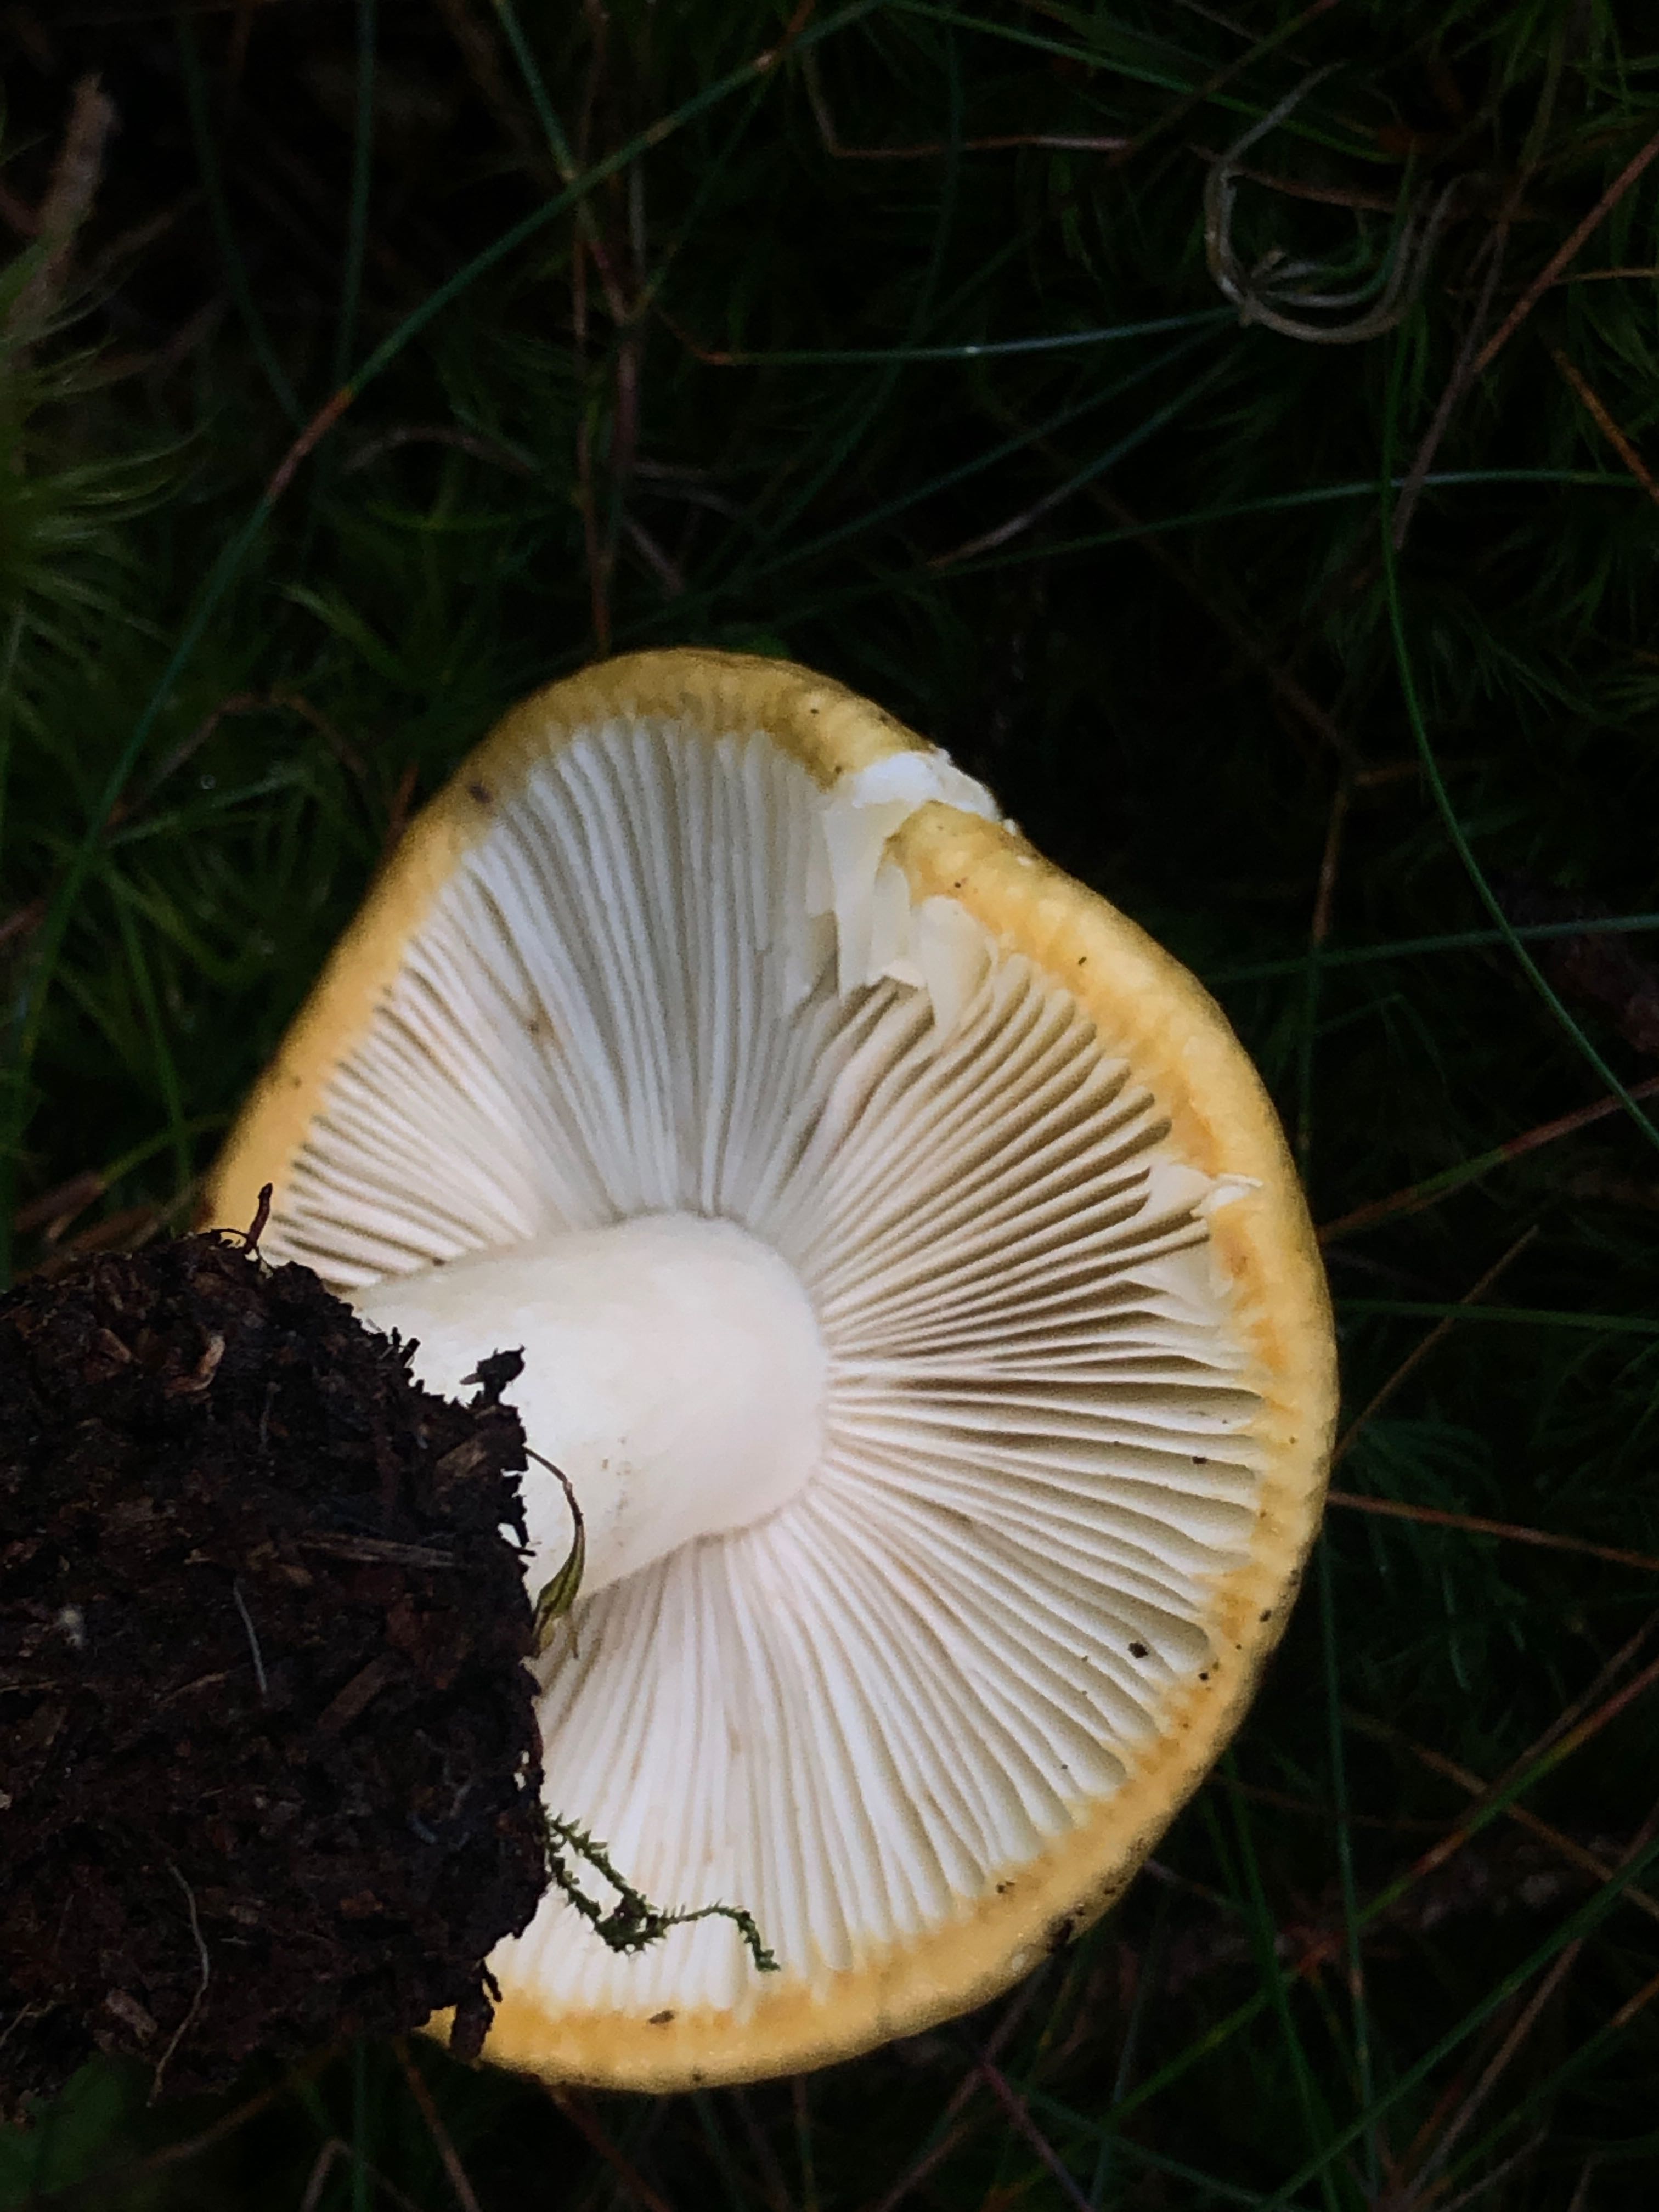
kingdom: Fungi
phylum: Basidiomycota
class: Agaricomycetes
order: Russulales
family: Russulaceae
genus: Russula
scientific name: Russula ochroleuca
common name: okkergul skørhat
